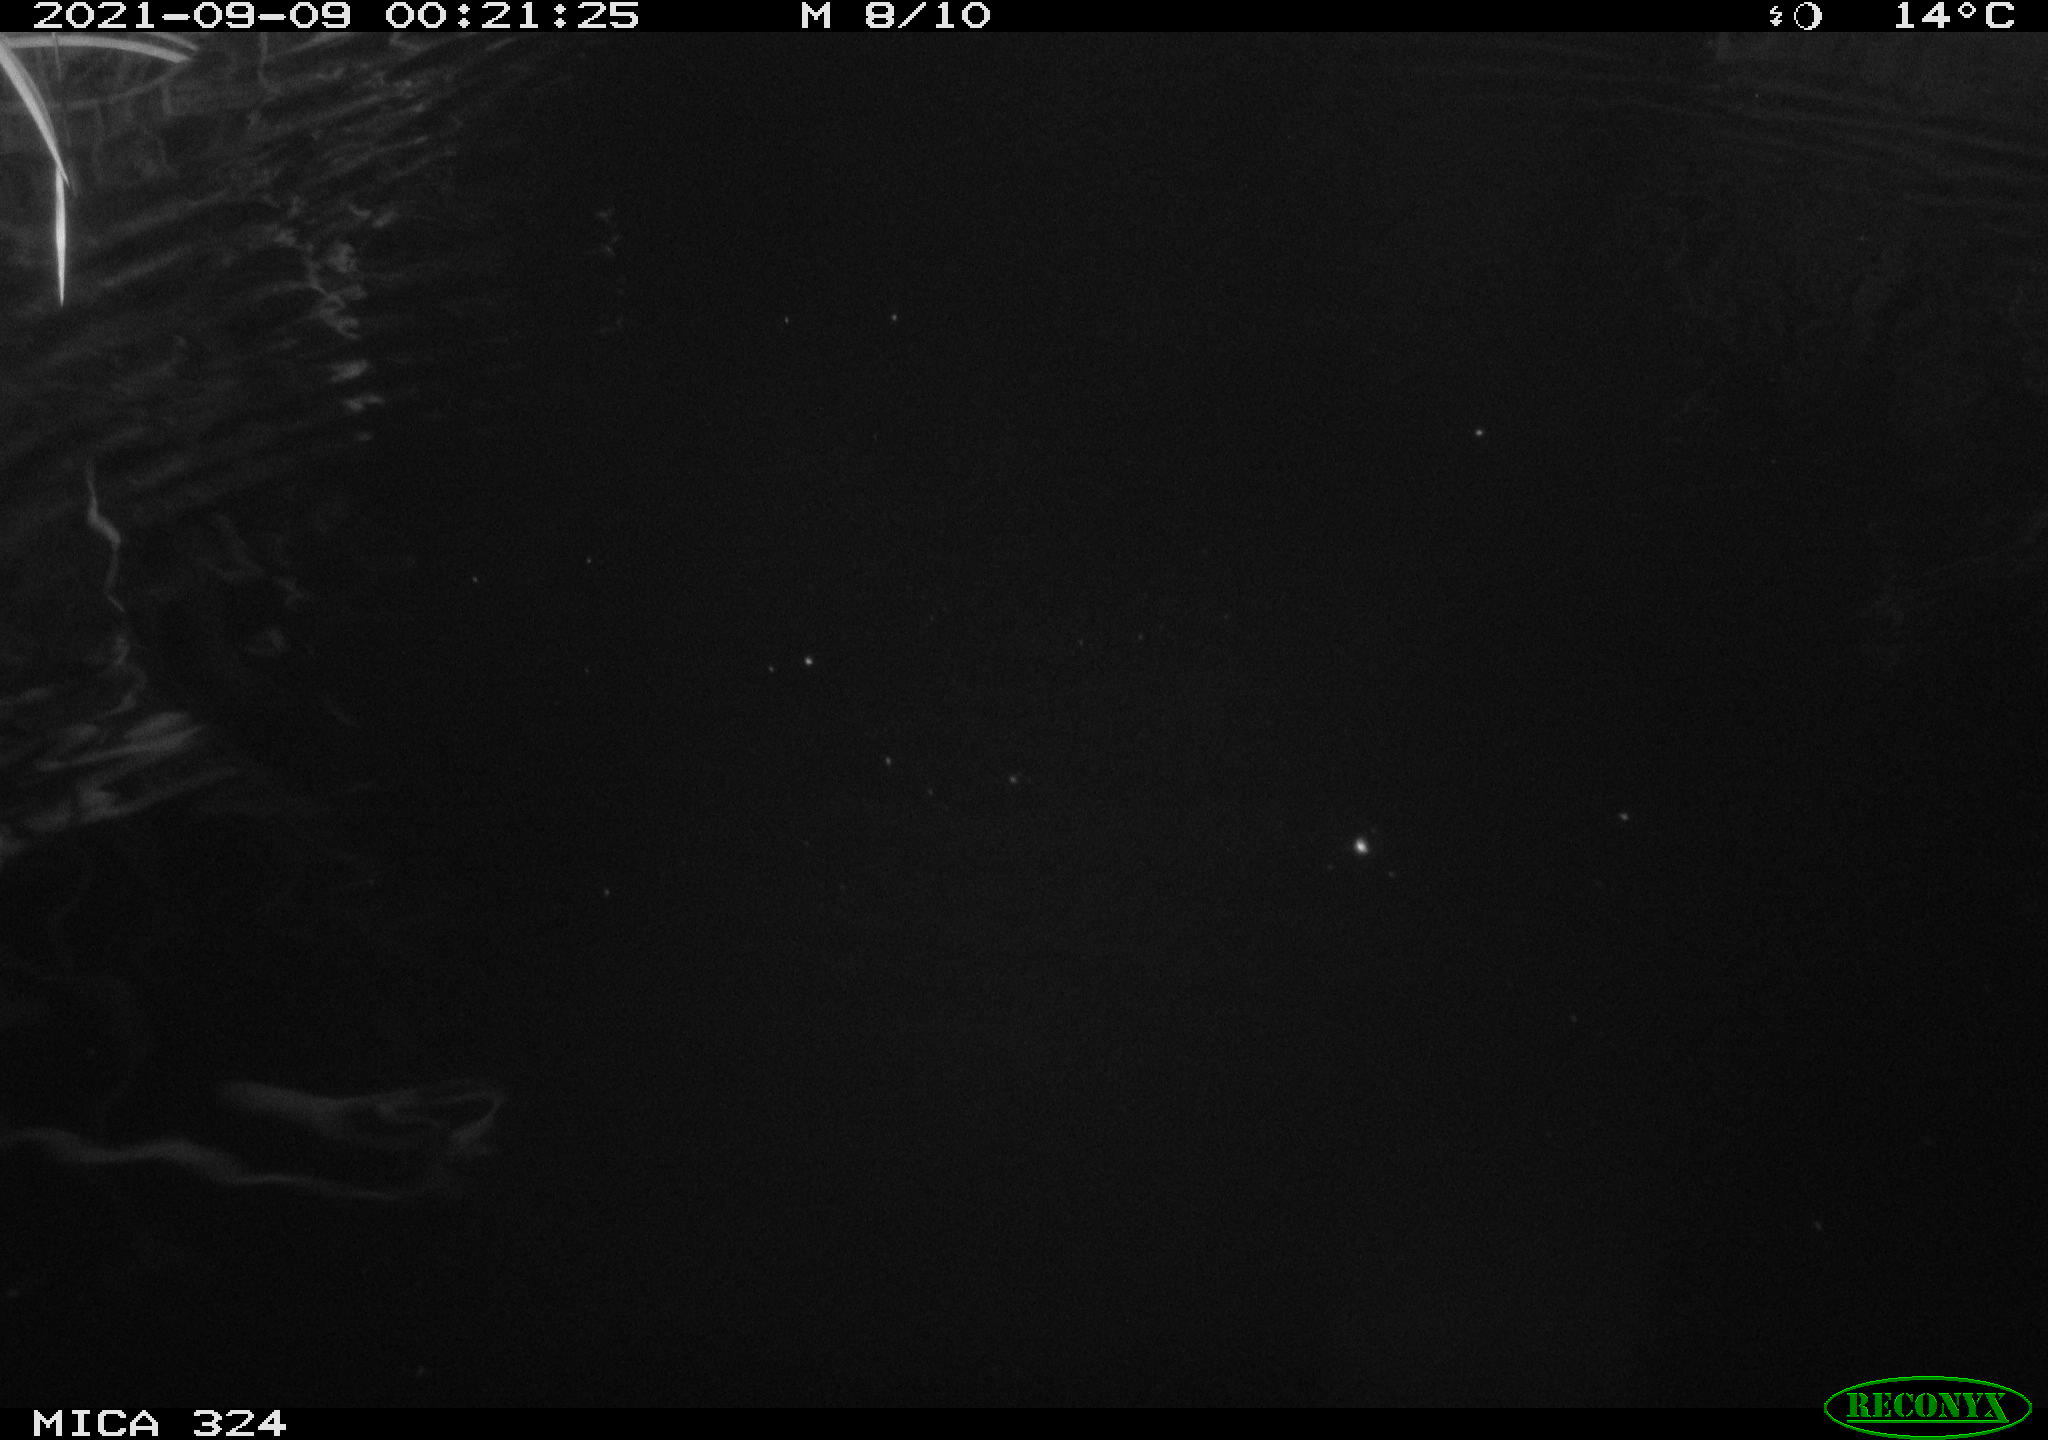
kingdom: Animalia
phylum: Chordata
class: Mammalia
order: Rodentia
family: Cricetidae
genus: Ondatra
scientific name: Ondatra zibethicus
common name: Muskrat
